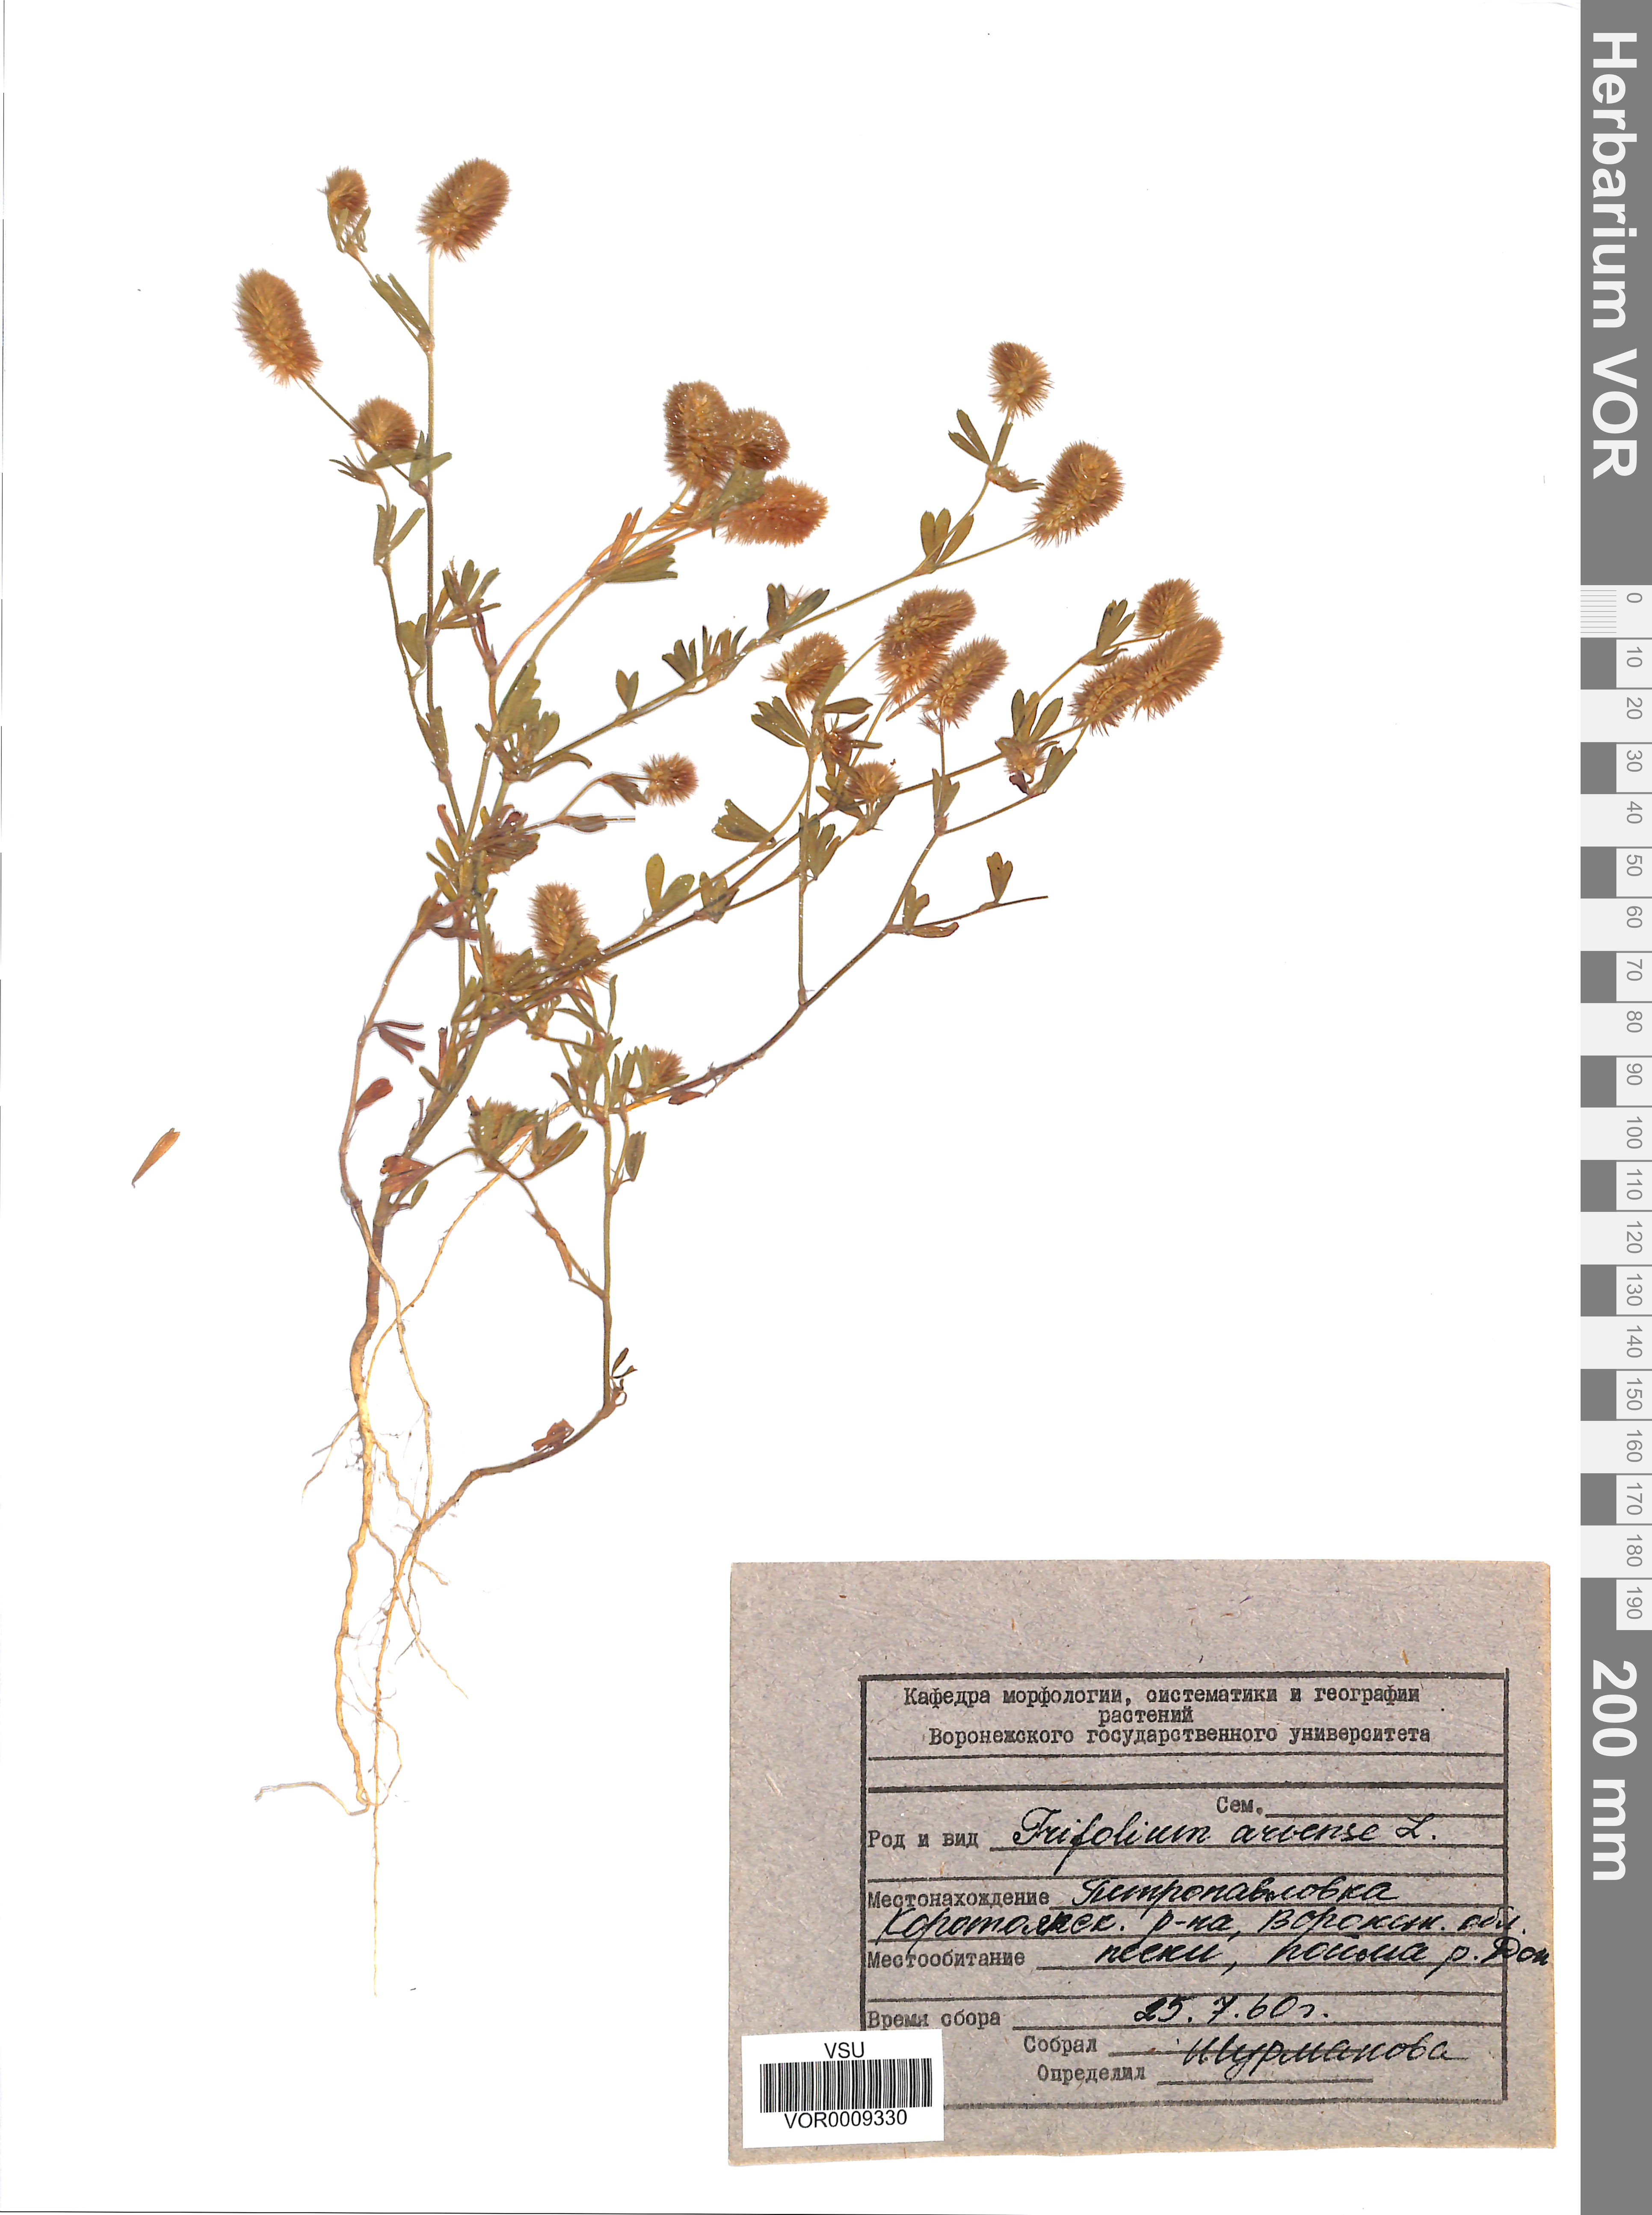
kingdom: Plantae
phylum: Tracheophyta
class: Magnoliopsida
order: Fabales
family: Fabaceae
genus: Trifolium
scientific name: Trifolium arvense
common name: Hare's-foot clover
